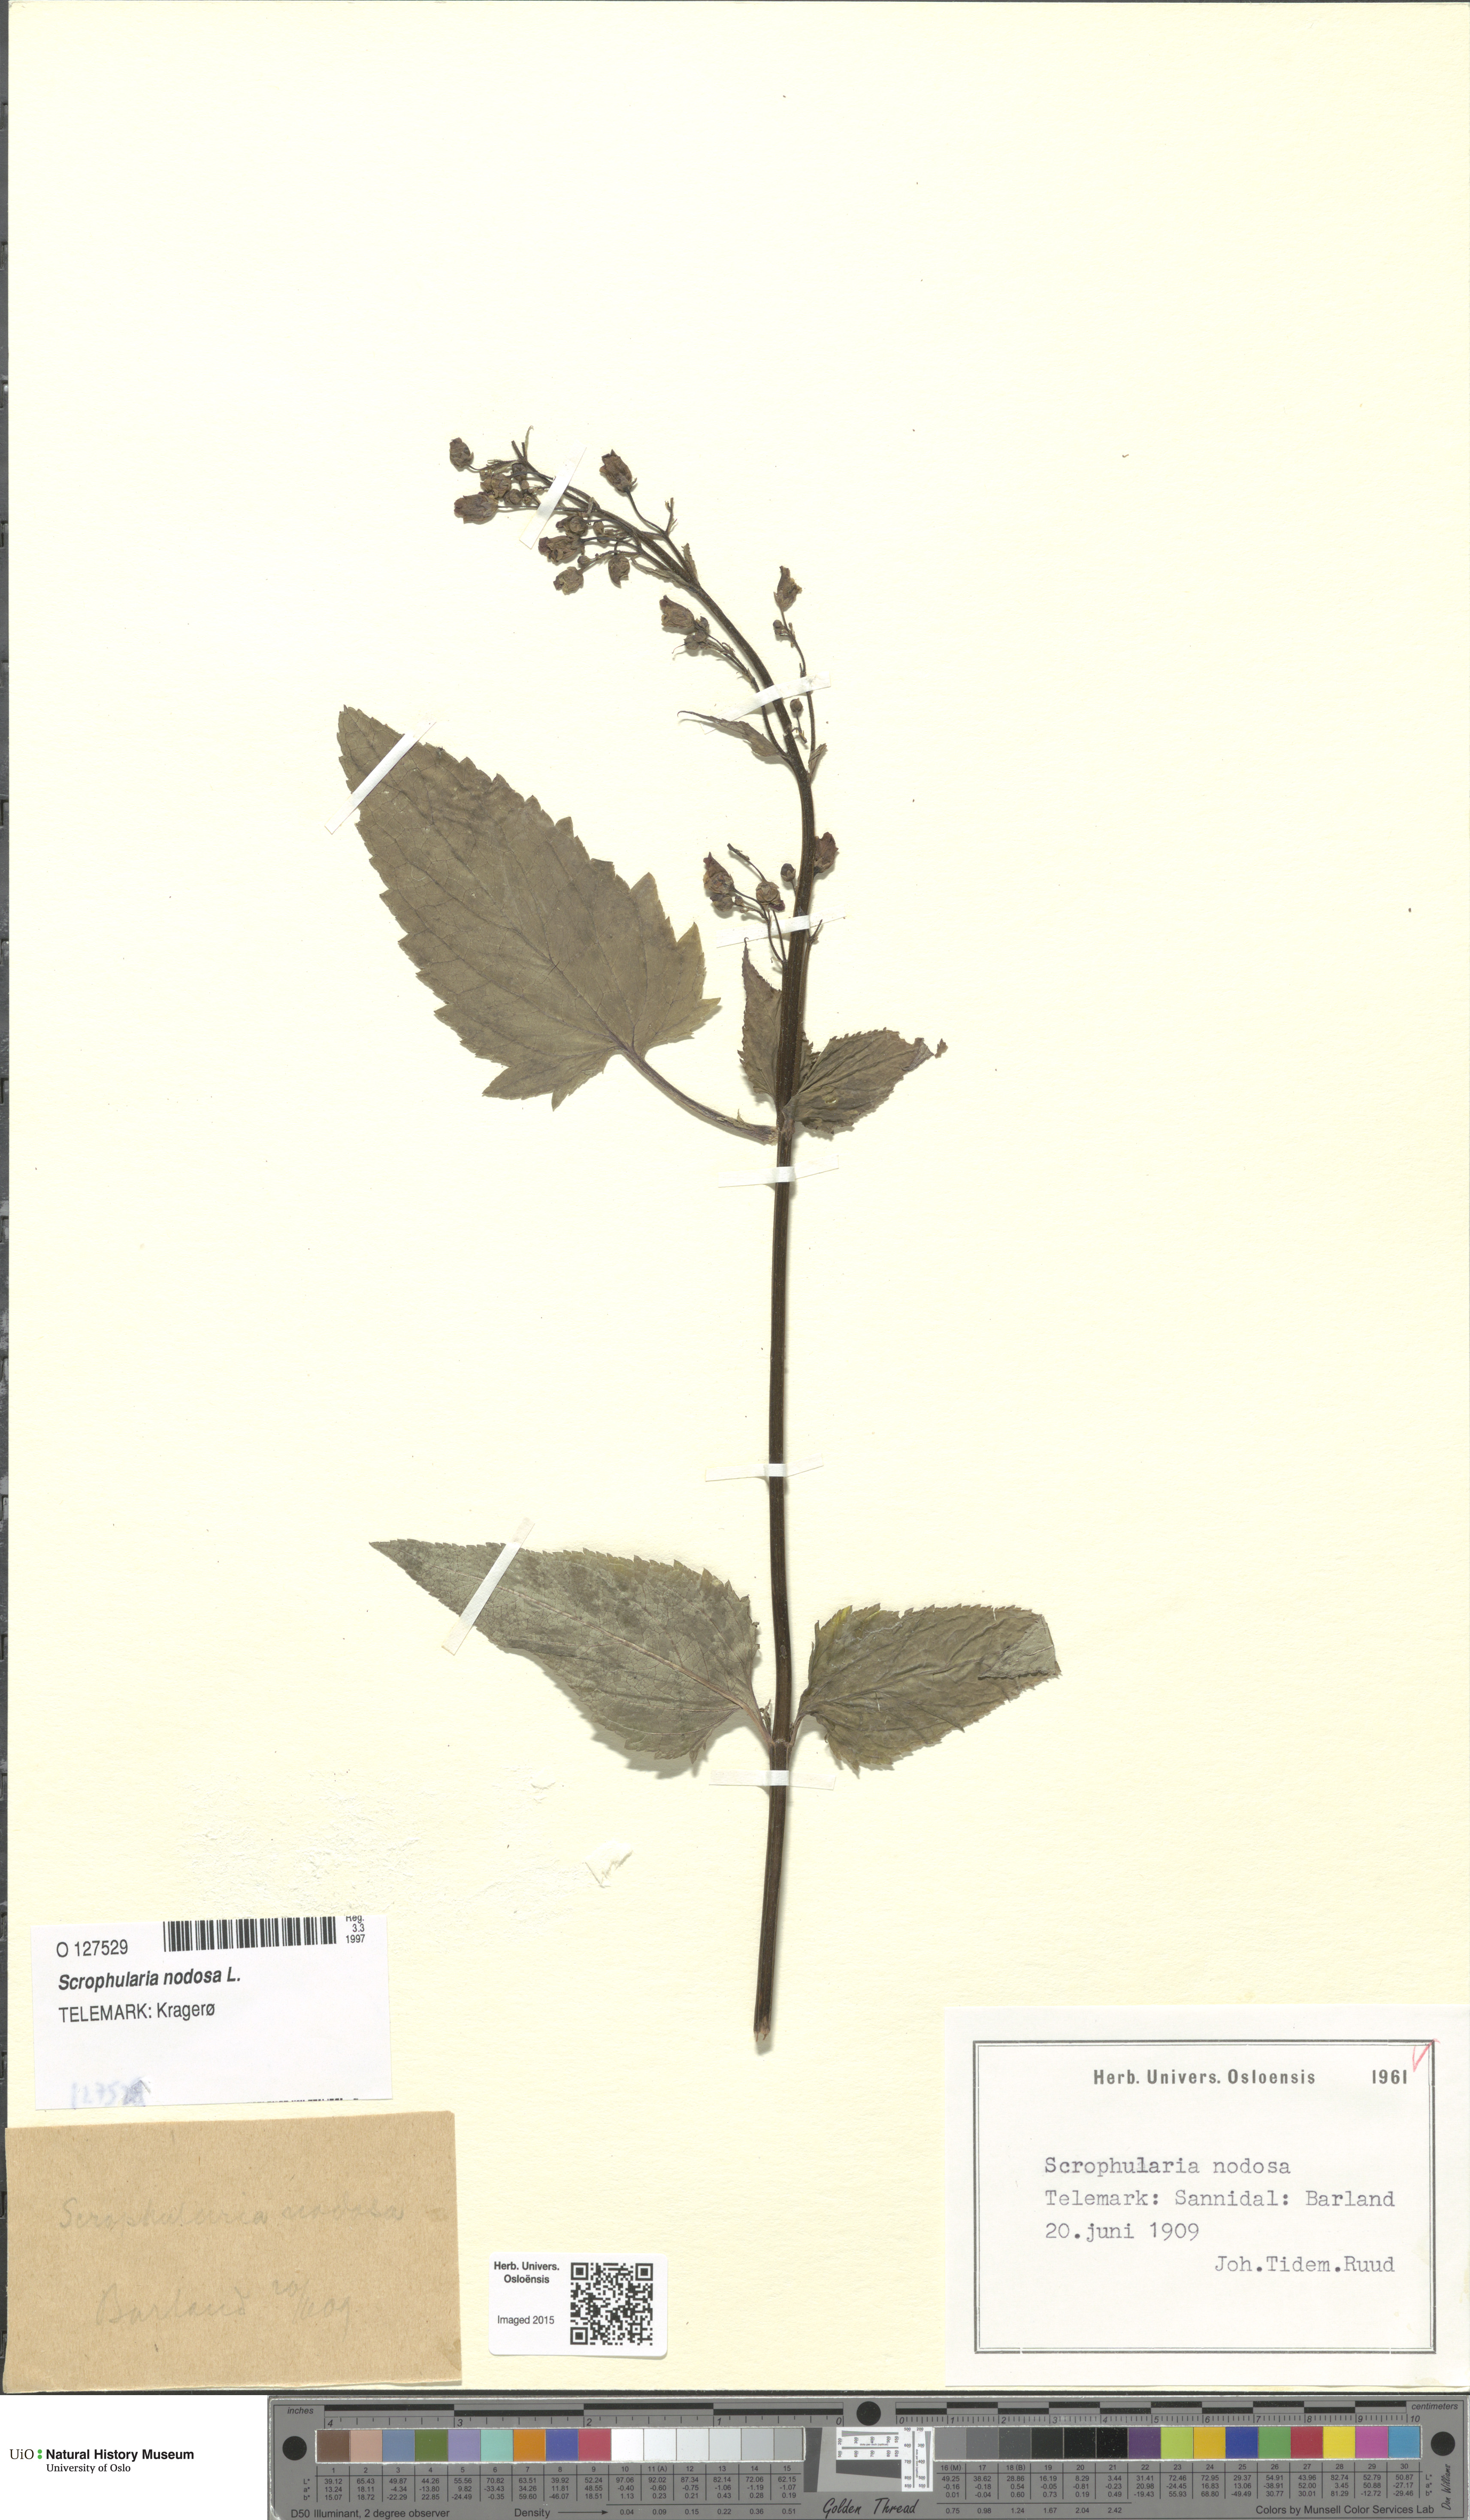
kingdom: Plantae
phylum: Tracheophyta
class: Magnoliopsida
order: Lamiales
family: Scrophulariaceae
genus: Scrophularia
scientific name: Scrophularia nodosa
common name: Common figwort
